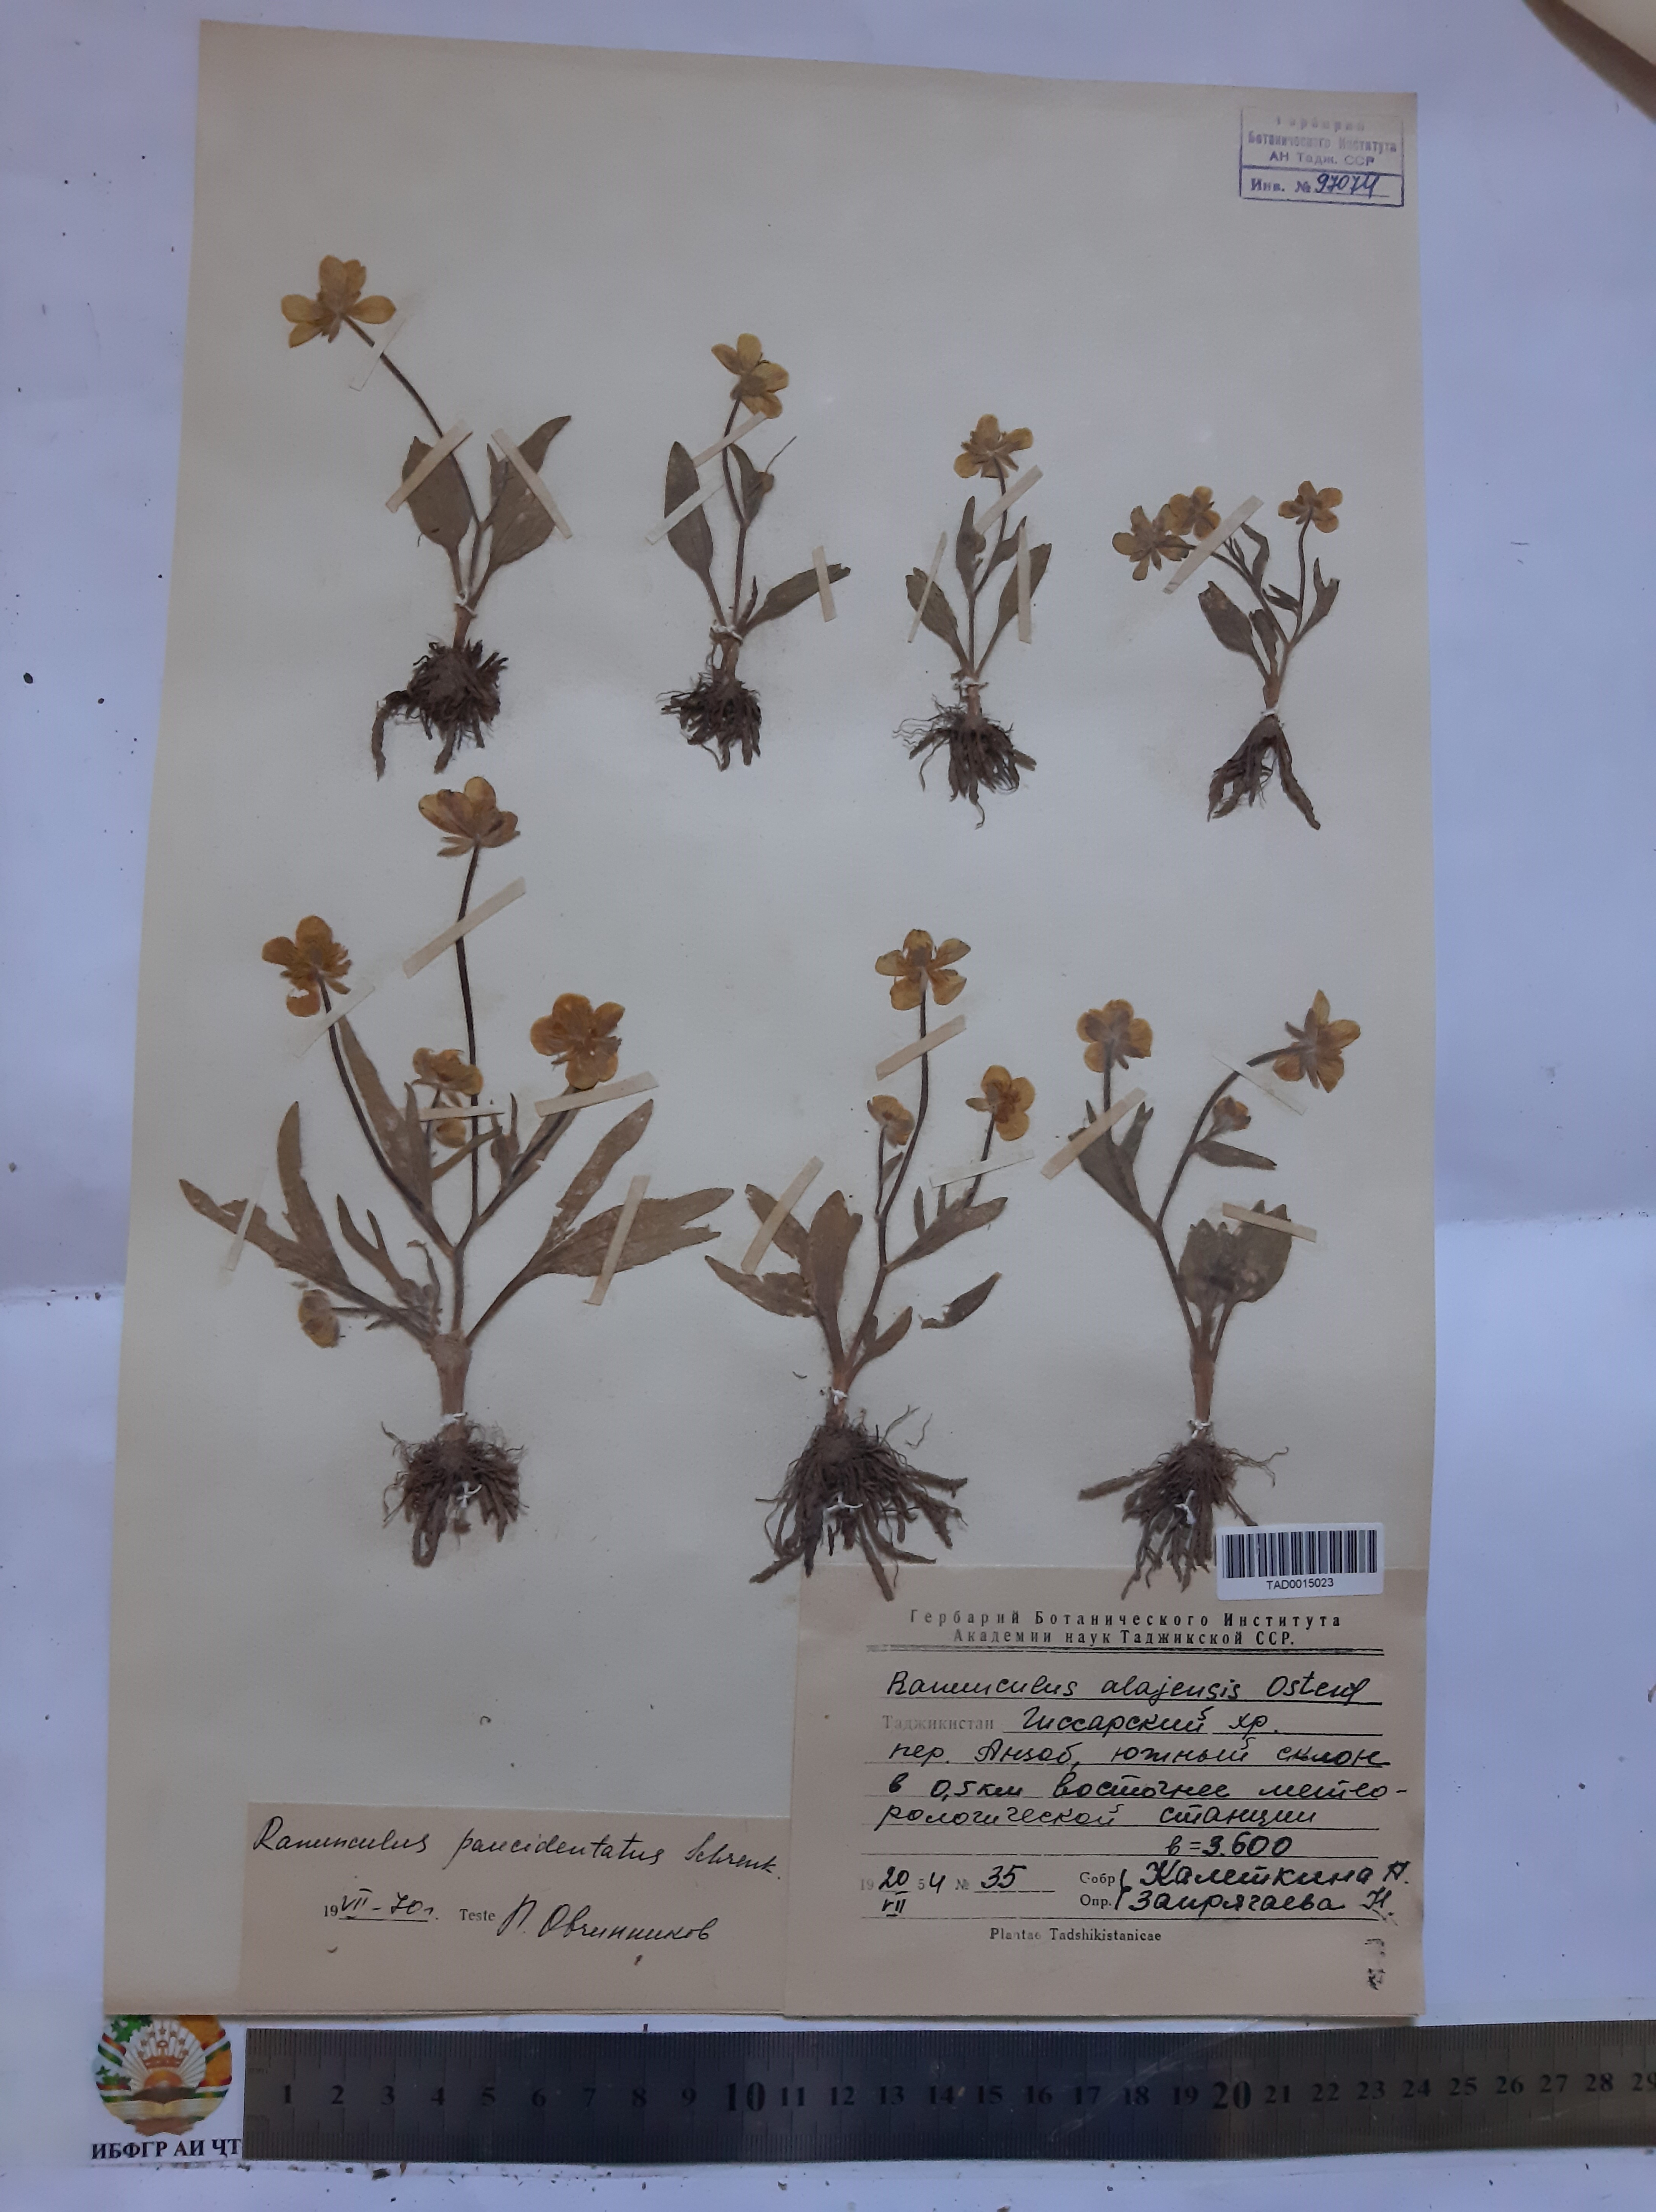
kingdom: Plantae
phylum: Tracheophyta
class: Magnoliopsida
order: Ranunculales
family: Ranunculaceae
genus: Ranunculus
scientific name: Ranunculus alaiensis
